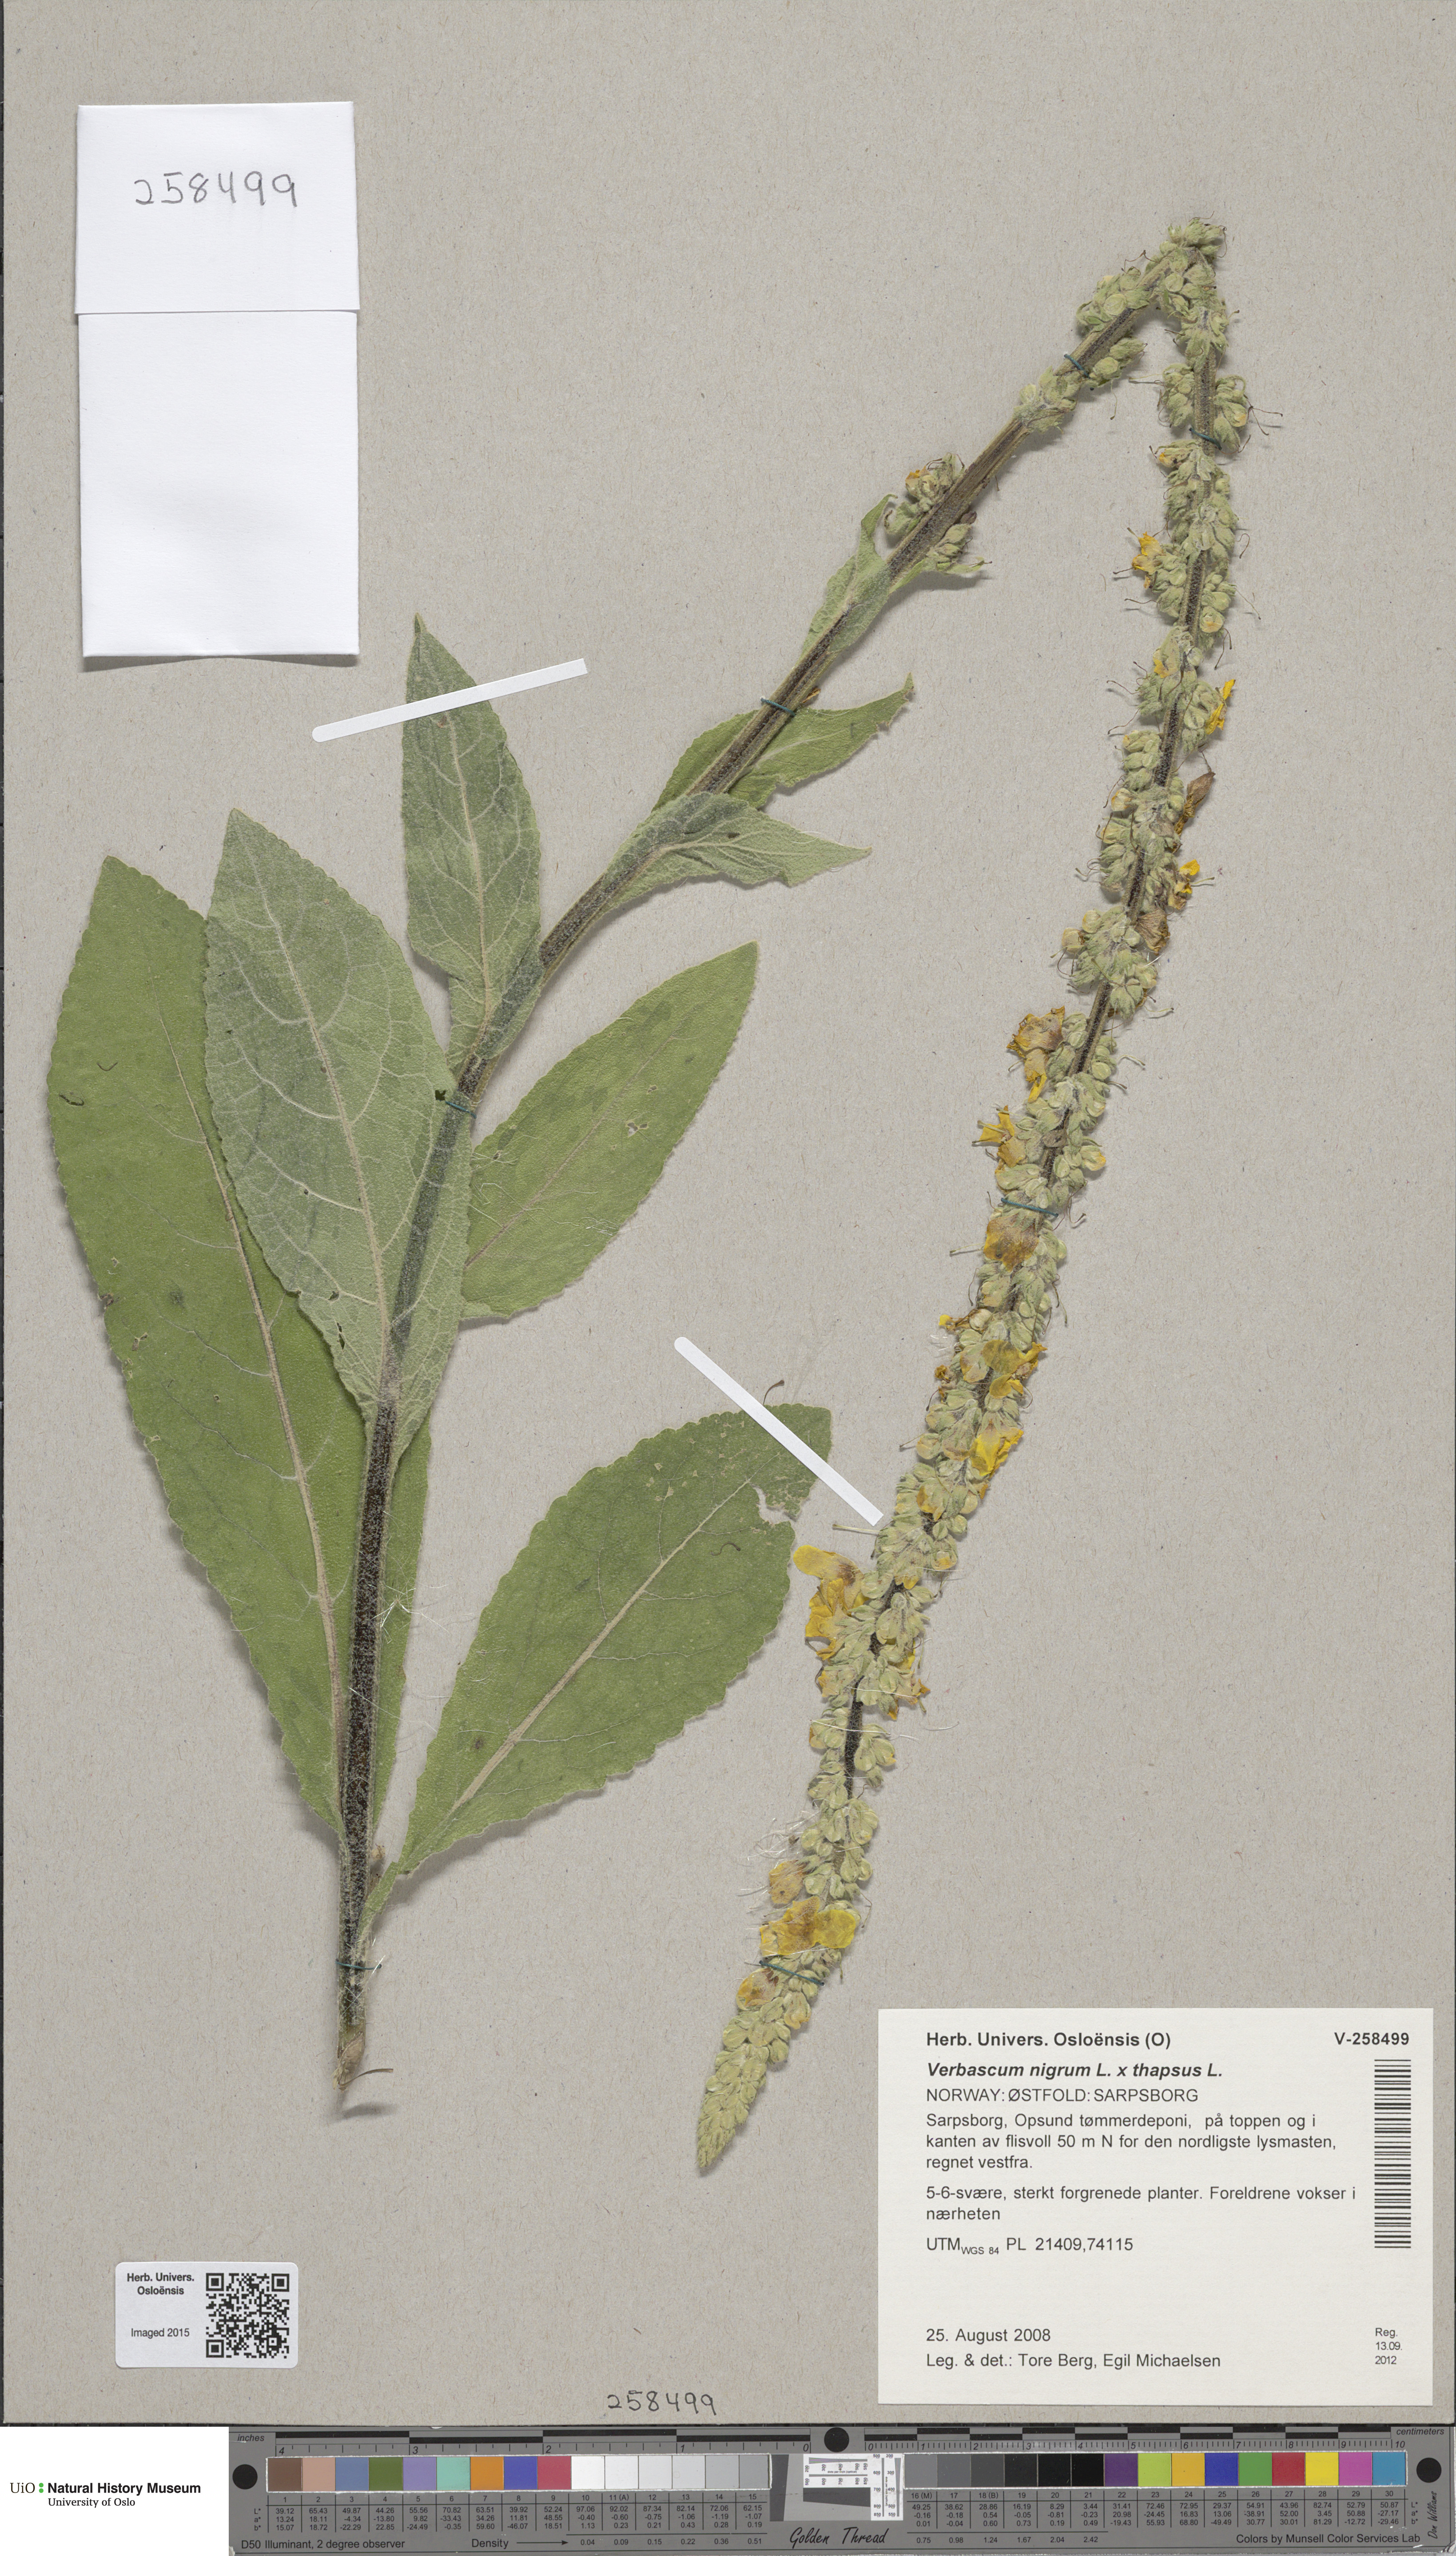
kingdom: Plantae
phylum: Tracheophyta
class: Magnoliopsida
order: Lamiales
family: Scrophulariaceae
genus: Verbascum
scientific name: Verbascum
